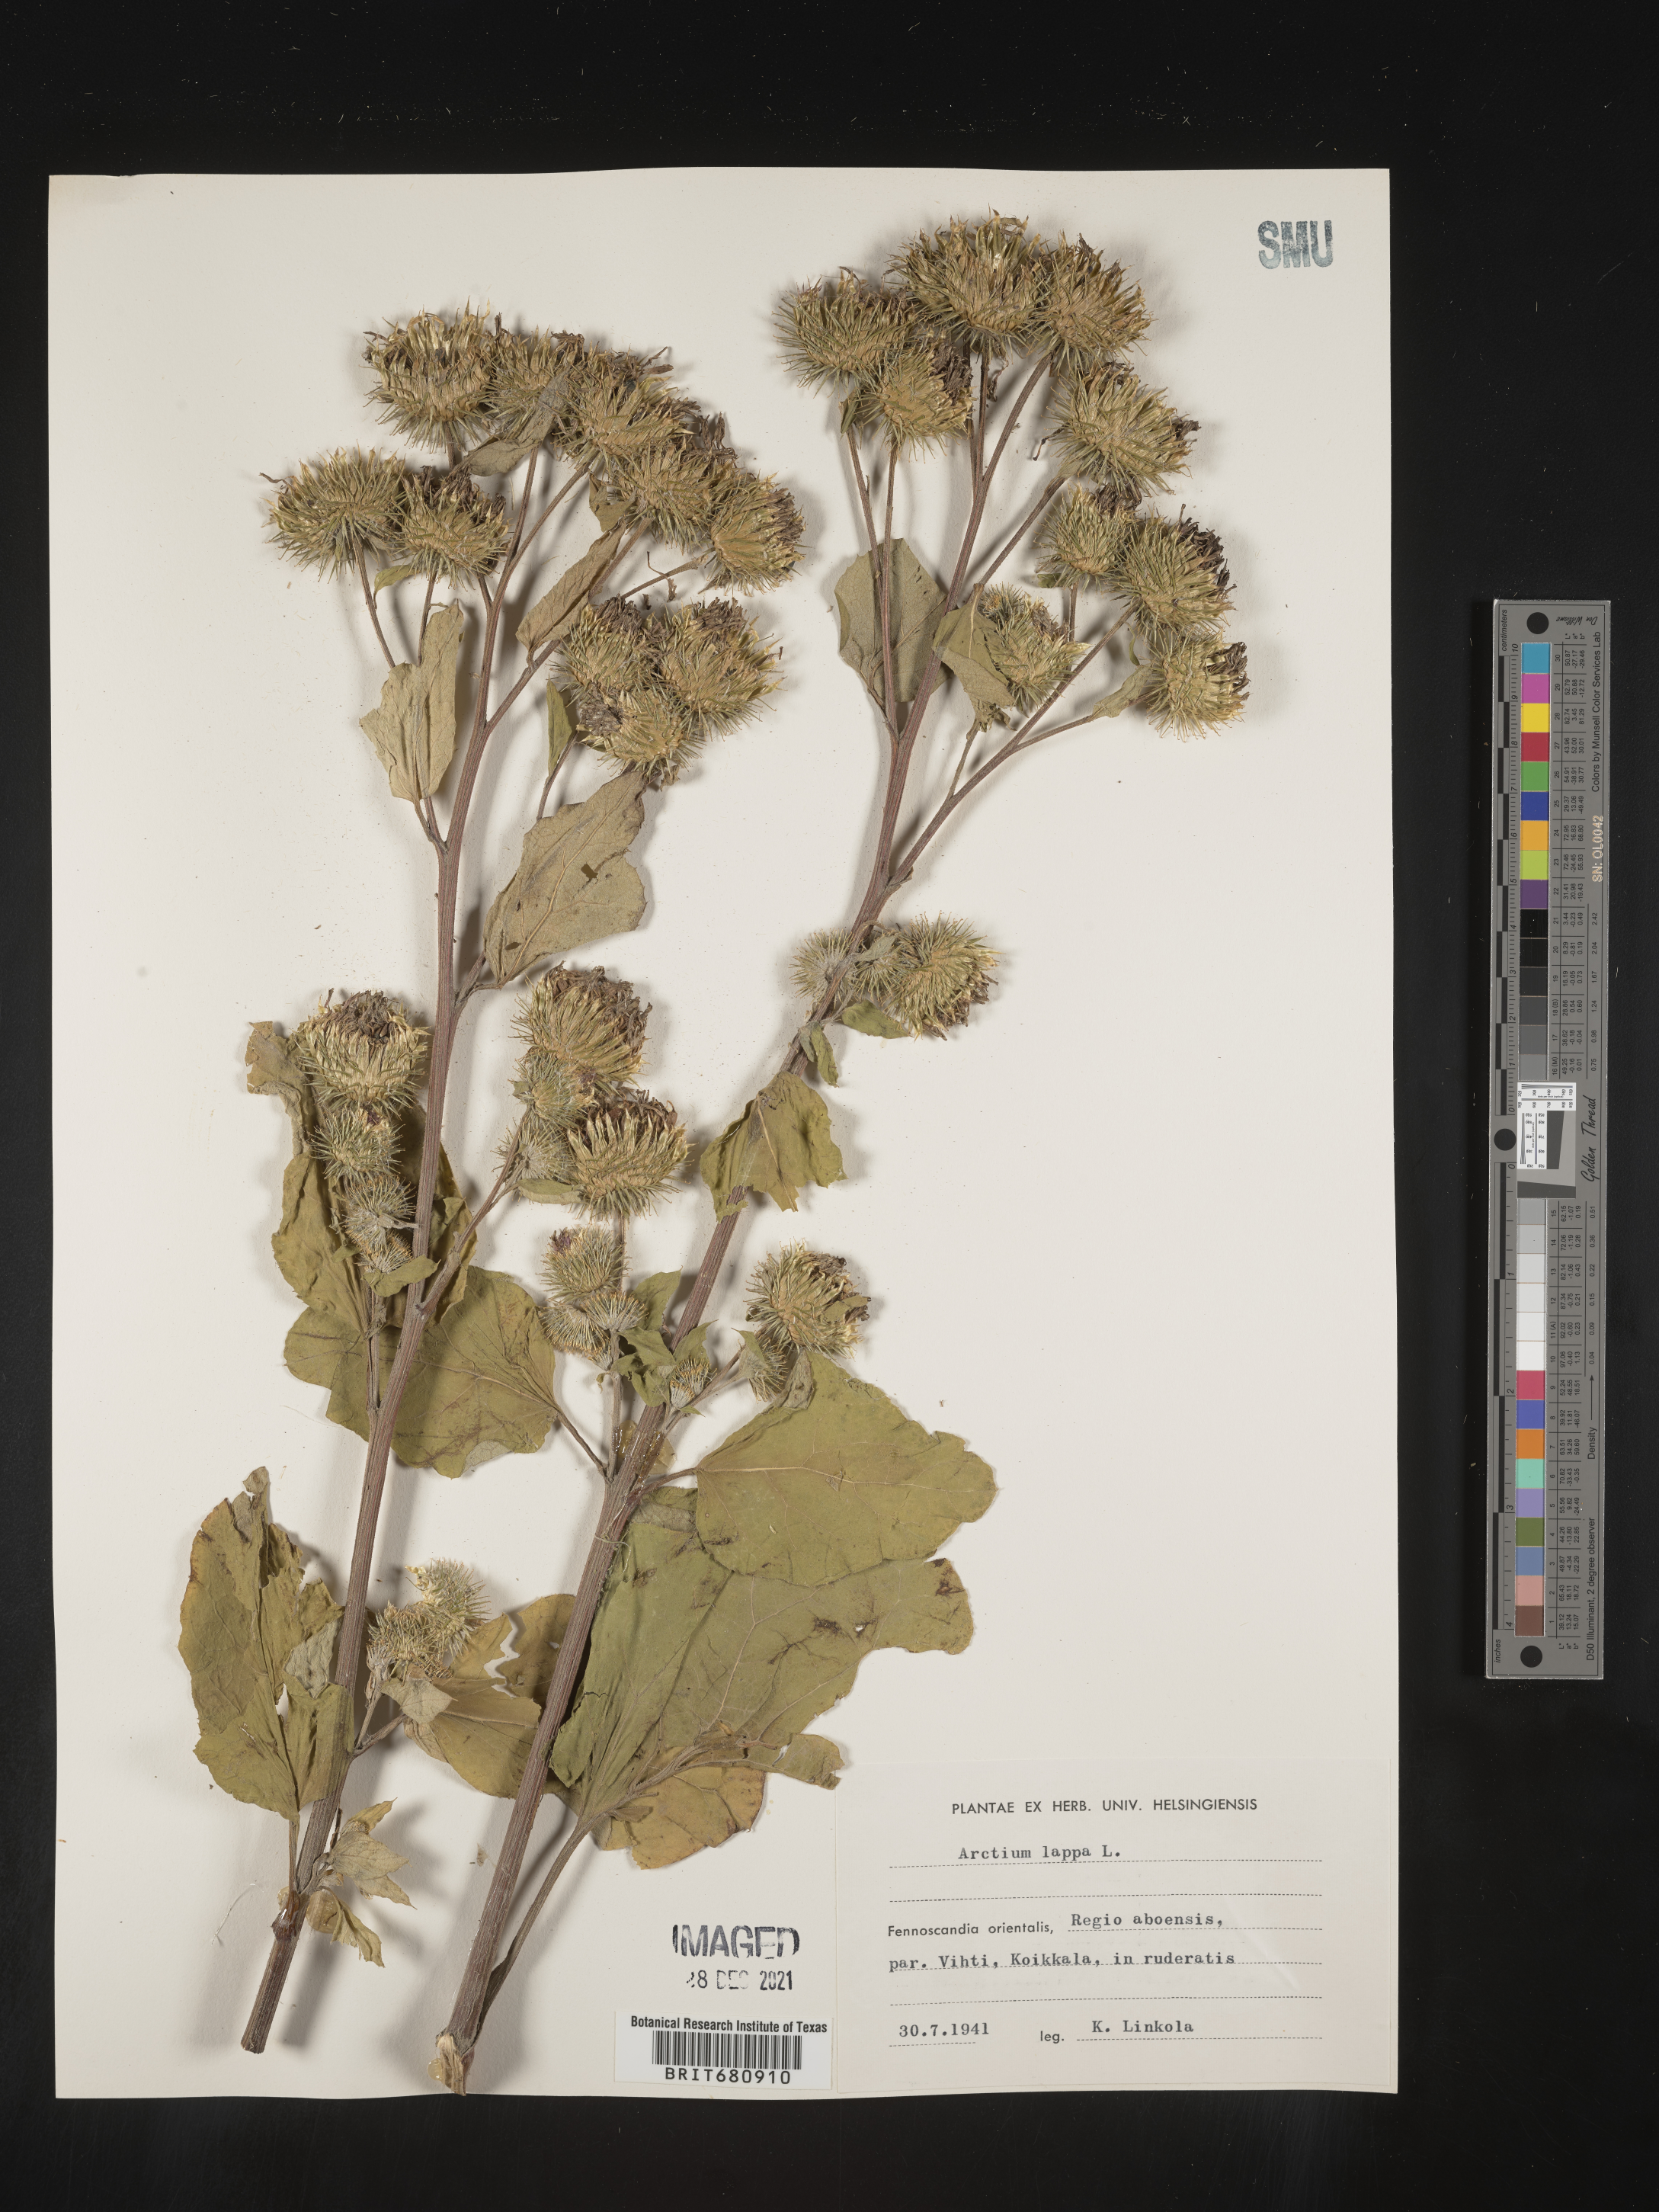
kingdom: Plantae
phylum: Tracheophyta
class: Magnoliopsida
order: Asterales
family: Asteraceae
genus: Arctium
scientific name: Arctium lappa
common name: Greater burdock
